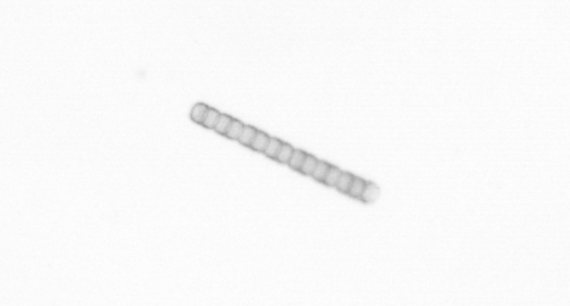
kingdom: Chromista
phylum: Ochrophyta
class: Bacillariophyceae
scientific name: Bacillariophyceae
